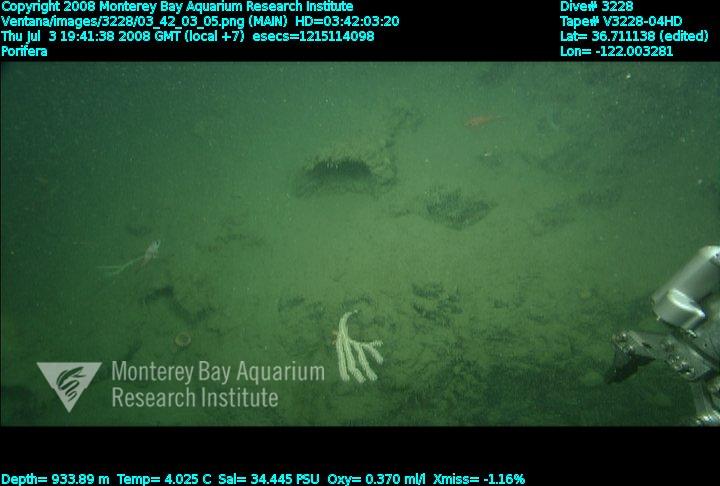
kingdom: Animalia
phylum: Porifera
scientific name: Porifera
